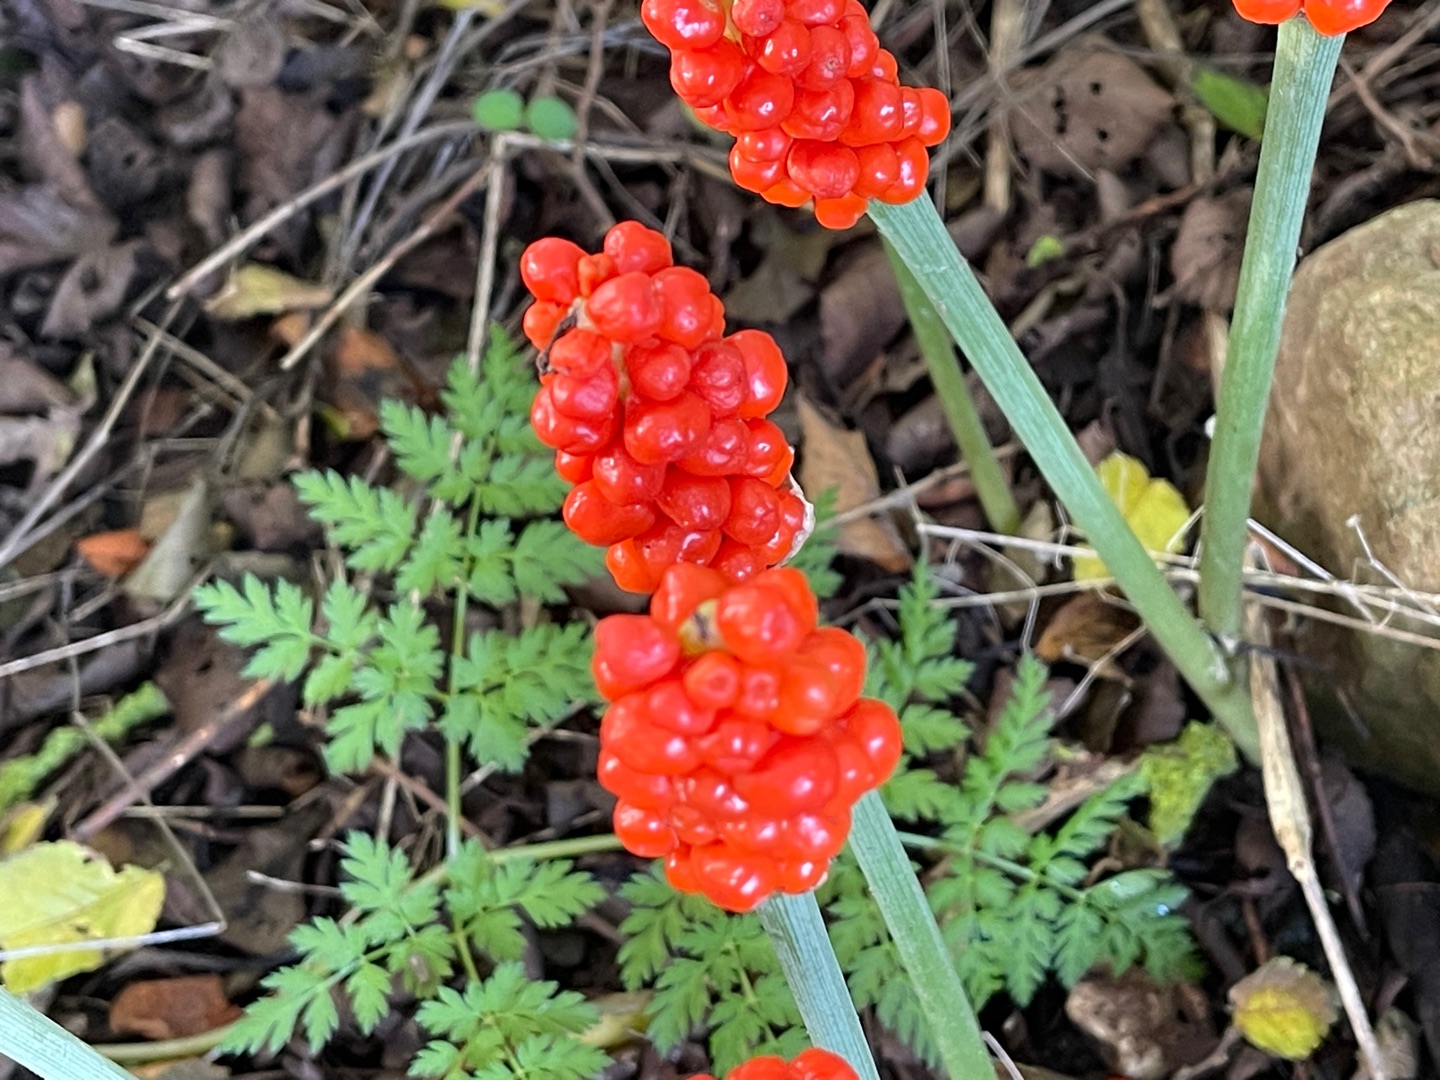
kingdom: Plantae
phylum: Tracheophyta
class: Liliopsida
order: Alismatales
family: Araceae
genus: Arum
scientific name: Arum
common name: Arumslægten
